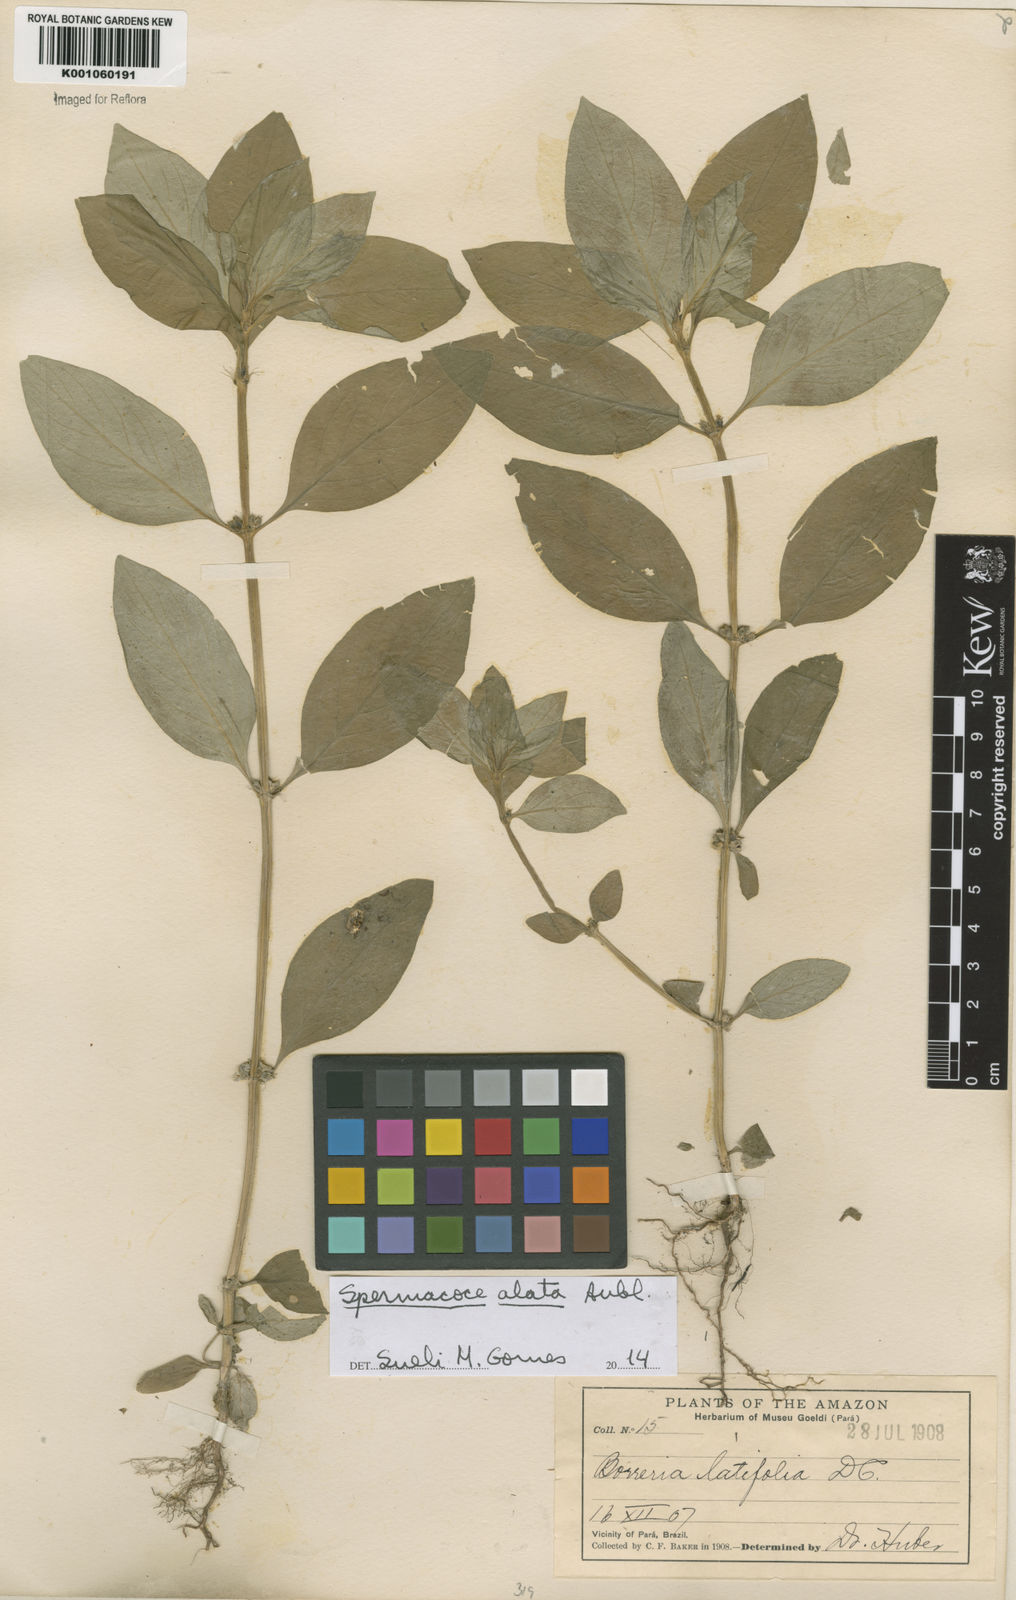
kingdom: Plantae
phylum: Tracheophyta
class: Magnoliopsida
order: Gentianales
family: Rubiaceae
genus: Spermacoce
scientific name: Spermacoce
